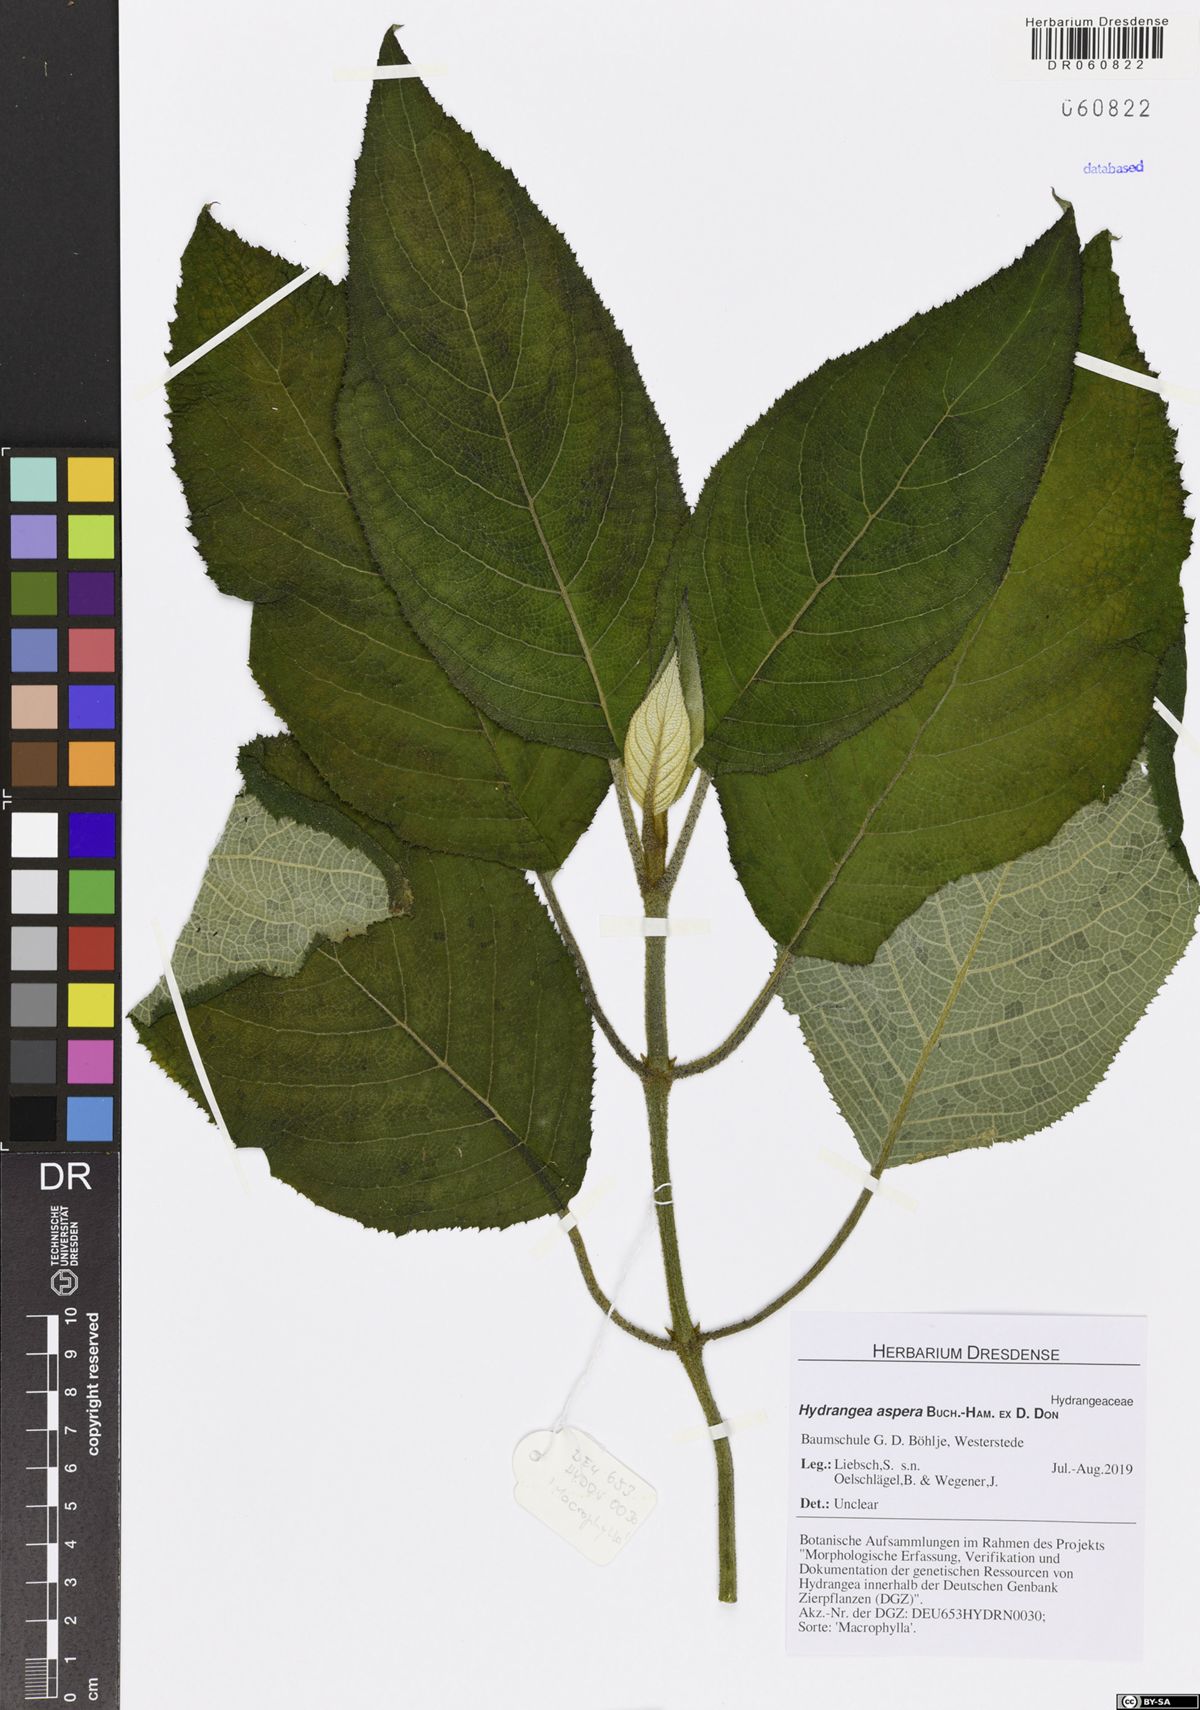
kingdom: Plantae
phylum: Tracheophyta
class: Magnoliopsida
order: Cornales
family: Hydrangeaceae
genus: Hydrangea
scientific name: Hydrangea aspera
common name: Rough-leaf hydrangea
